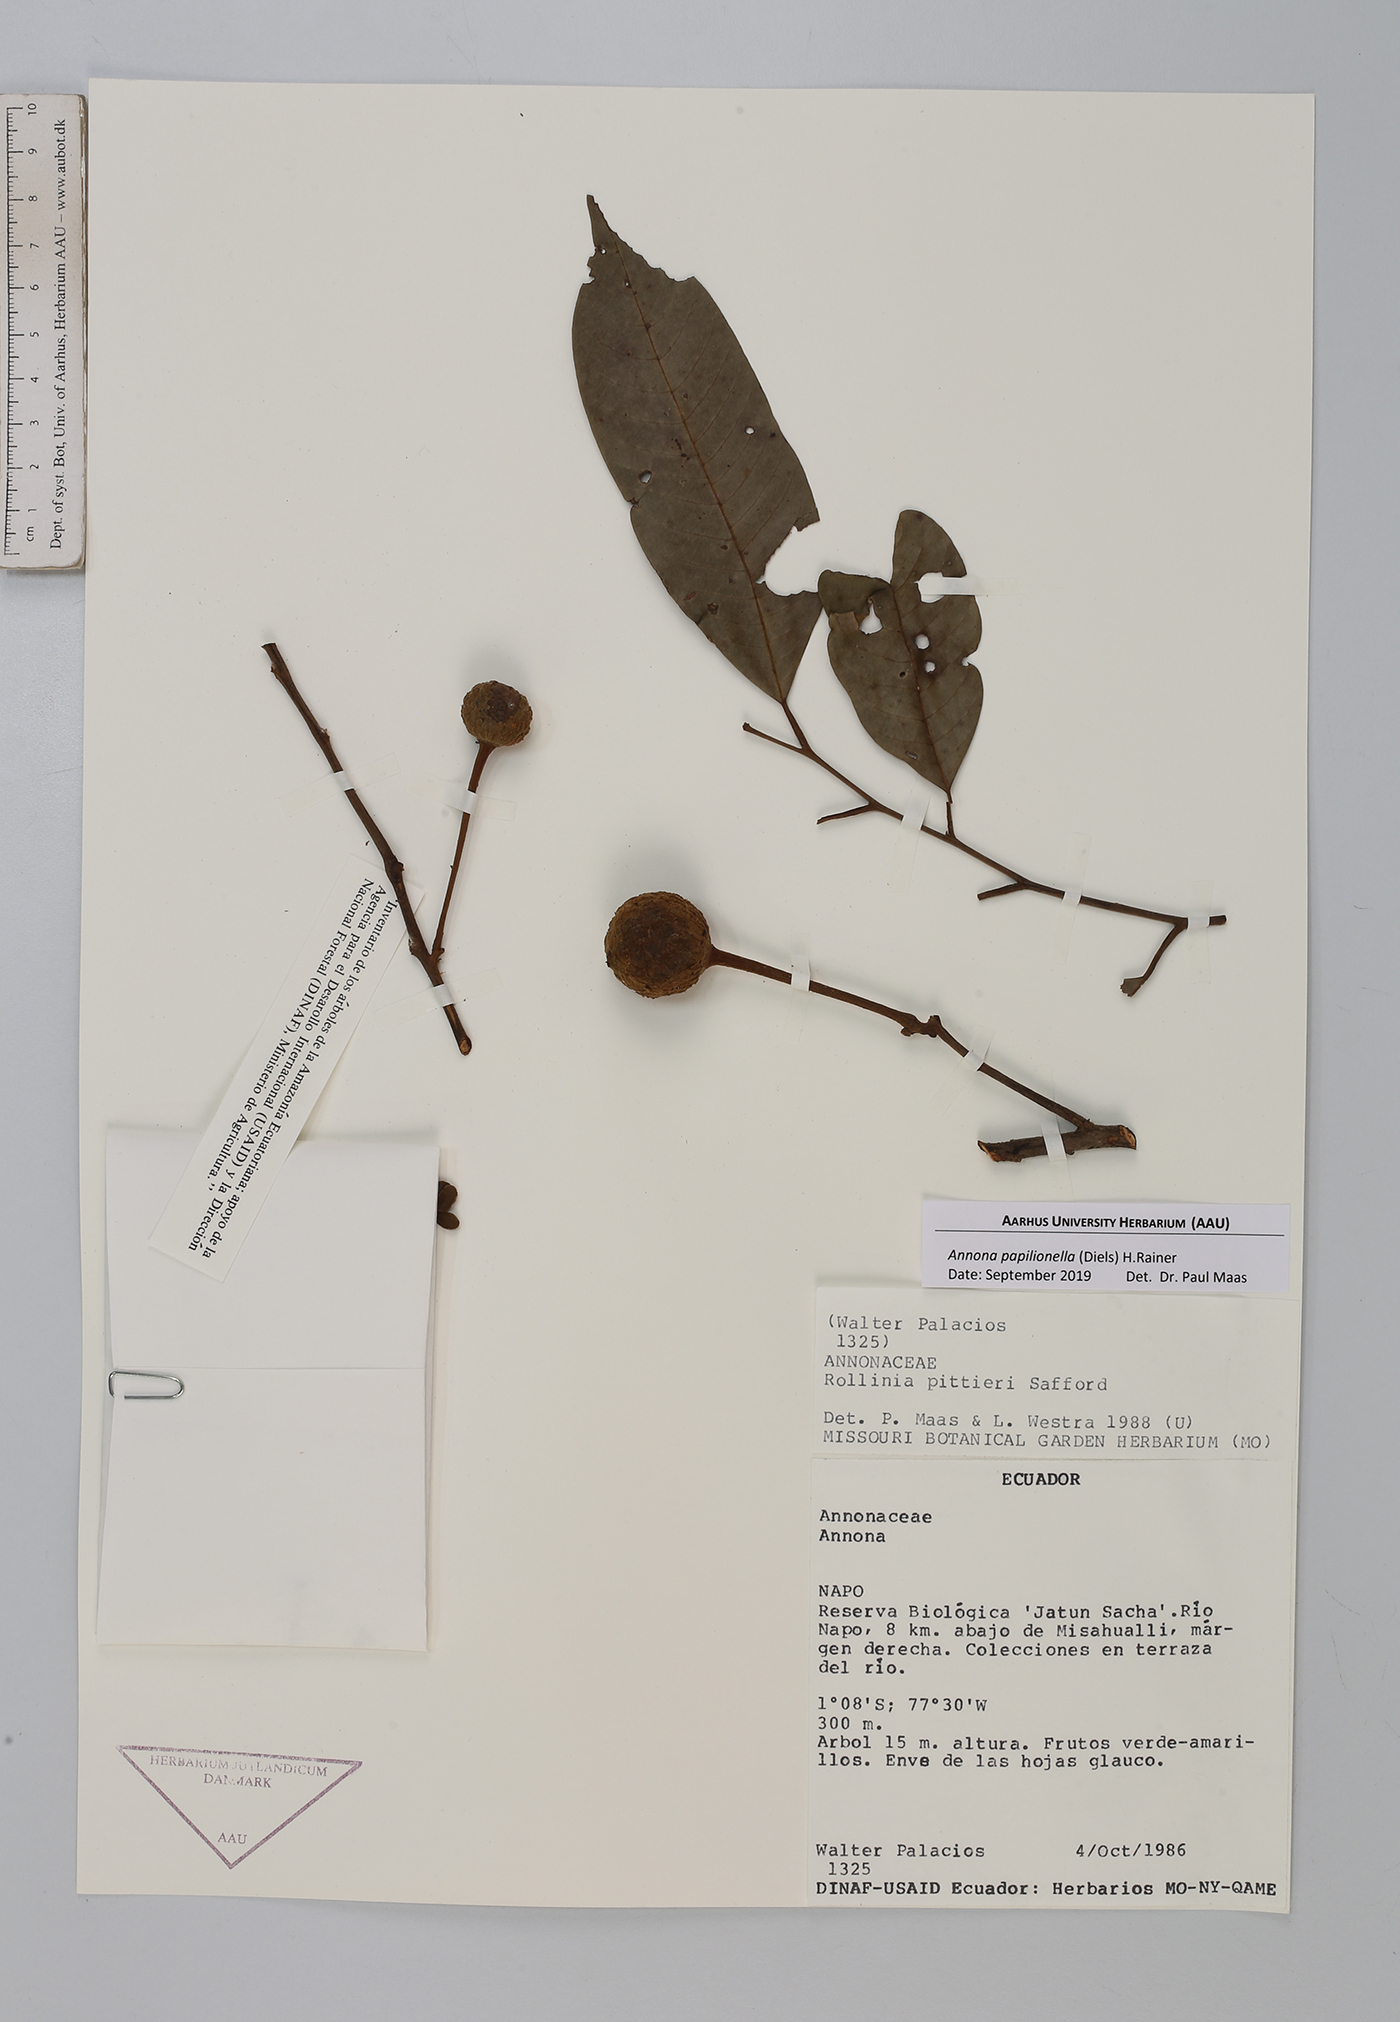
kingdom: Plantae
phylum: Tracheophyta
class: Magnoliopsida
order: Magnoliales
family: Annonaceae
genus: Annona
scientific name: Annona papilionella
